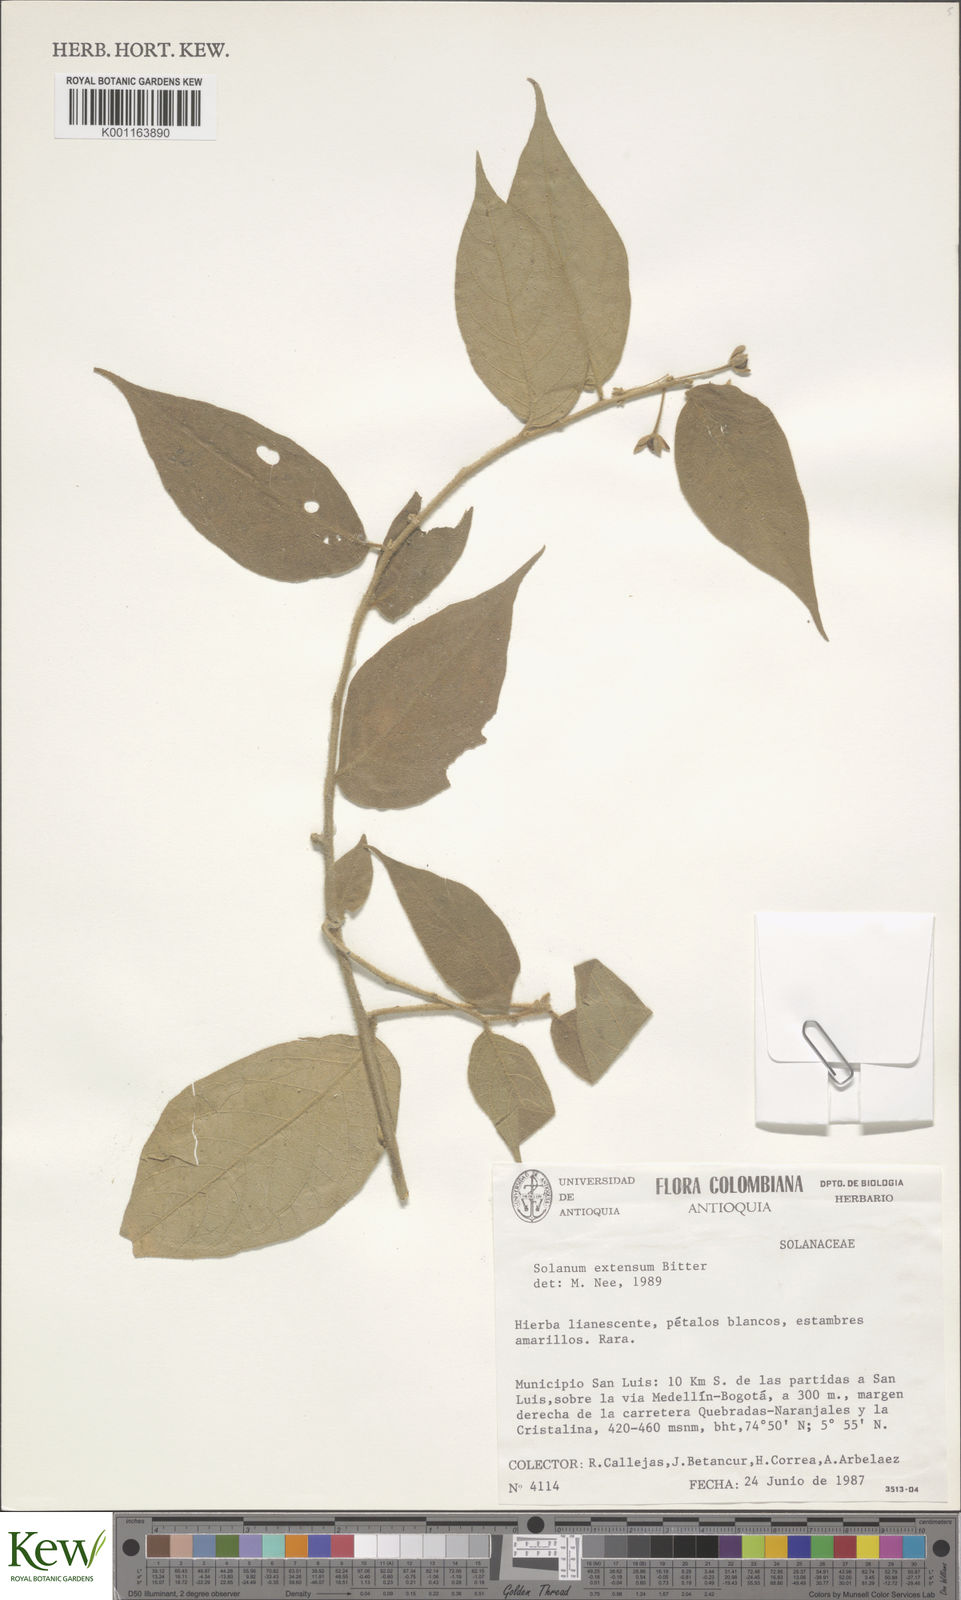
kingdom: Plantae
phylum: Tracheophyta
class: Magnoliopsida
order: Solanales
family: Solanaceae
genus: Solanum
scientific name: Solanum rhytidoandrum
